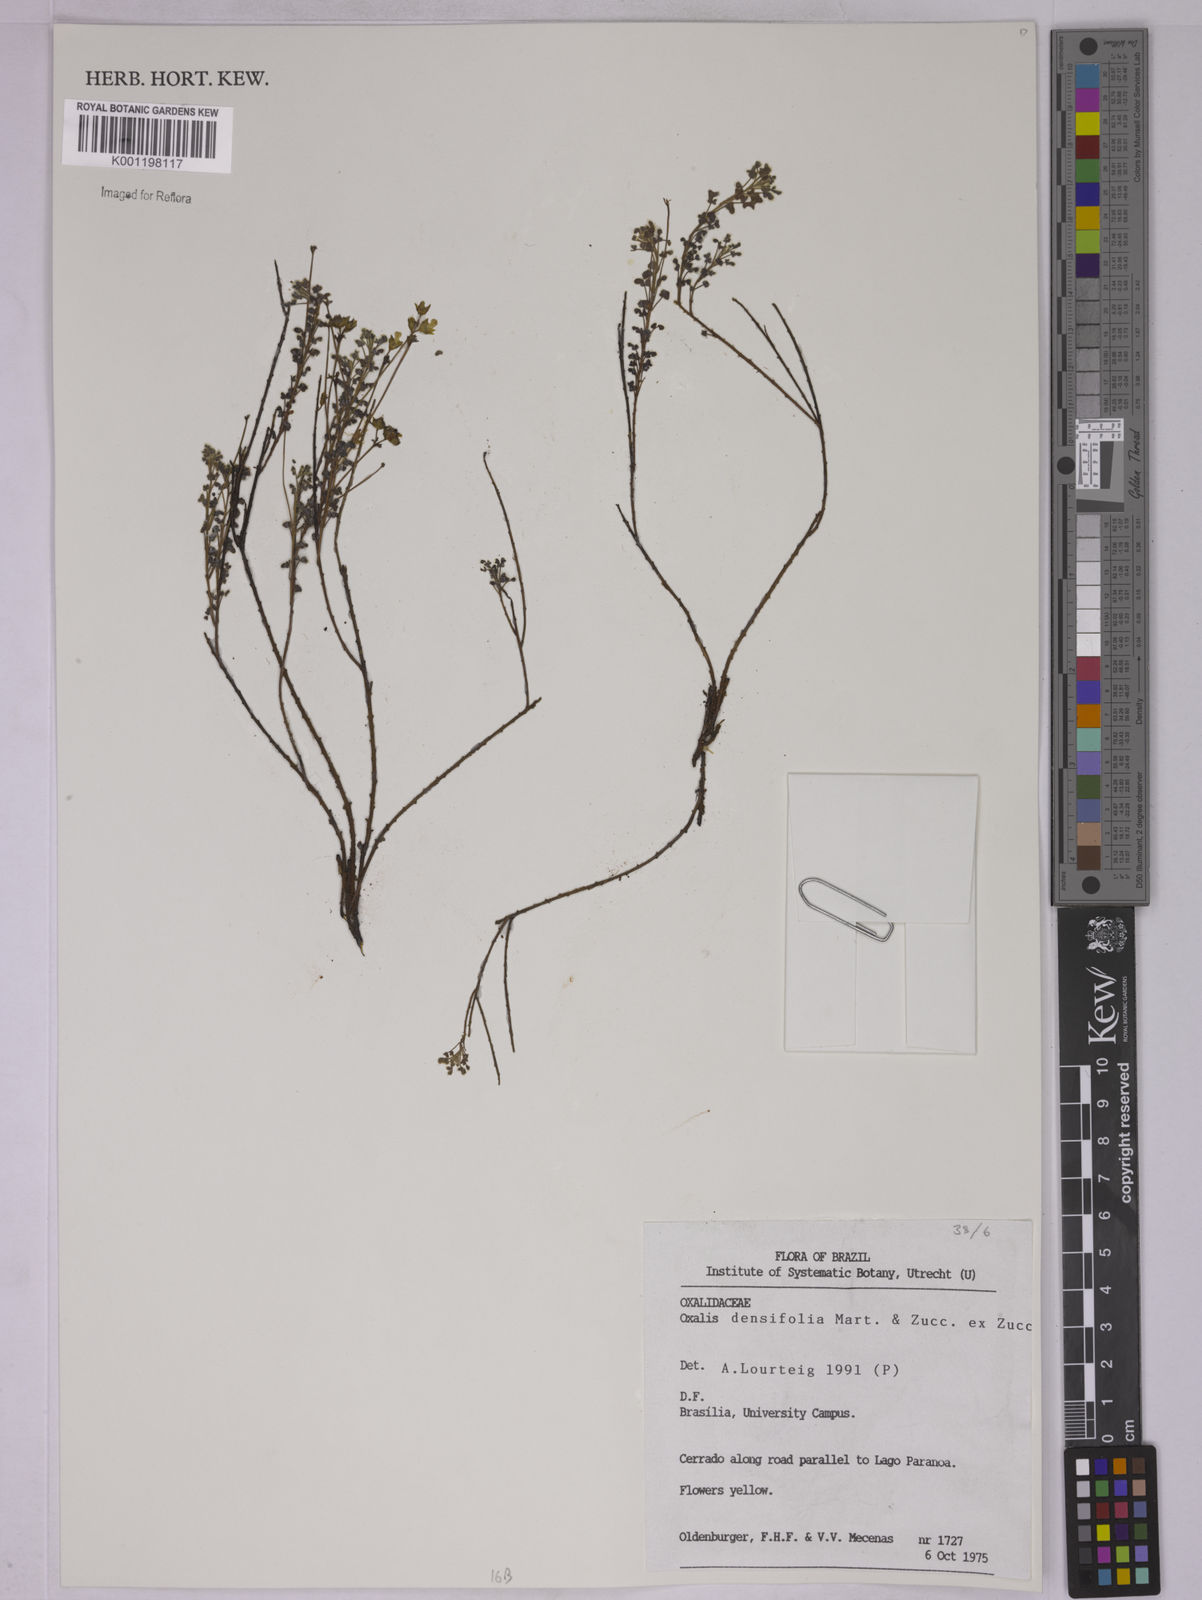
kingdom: Plantae
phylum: Tracheophyta
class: Magnoliopsida
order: Oxalidales
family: Oxalidaceae
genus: Oxalis
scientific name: Oxalis densifolia
